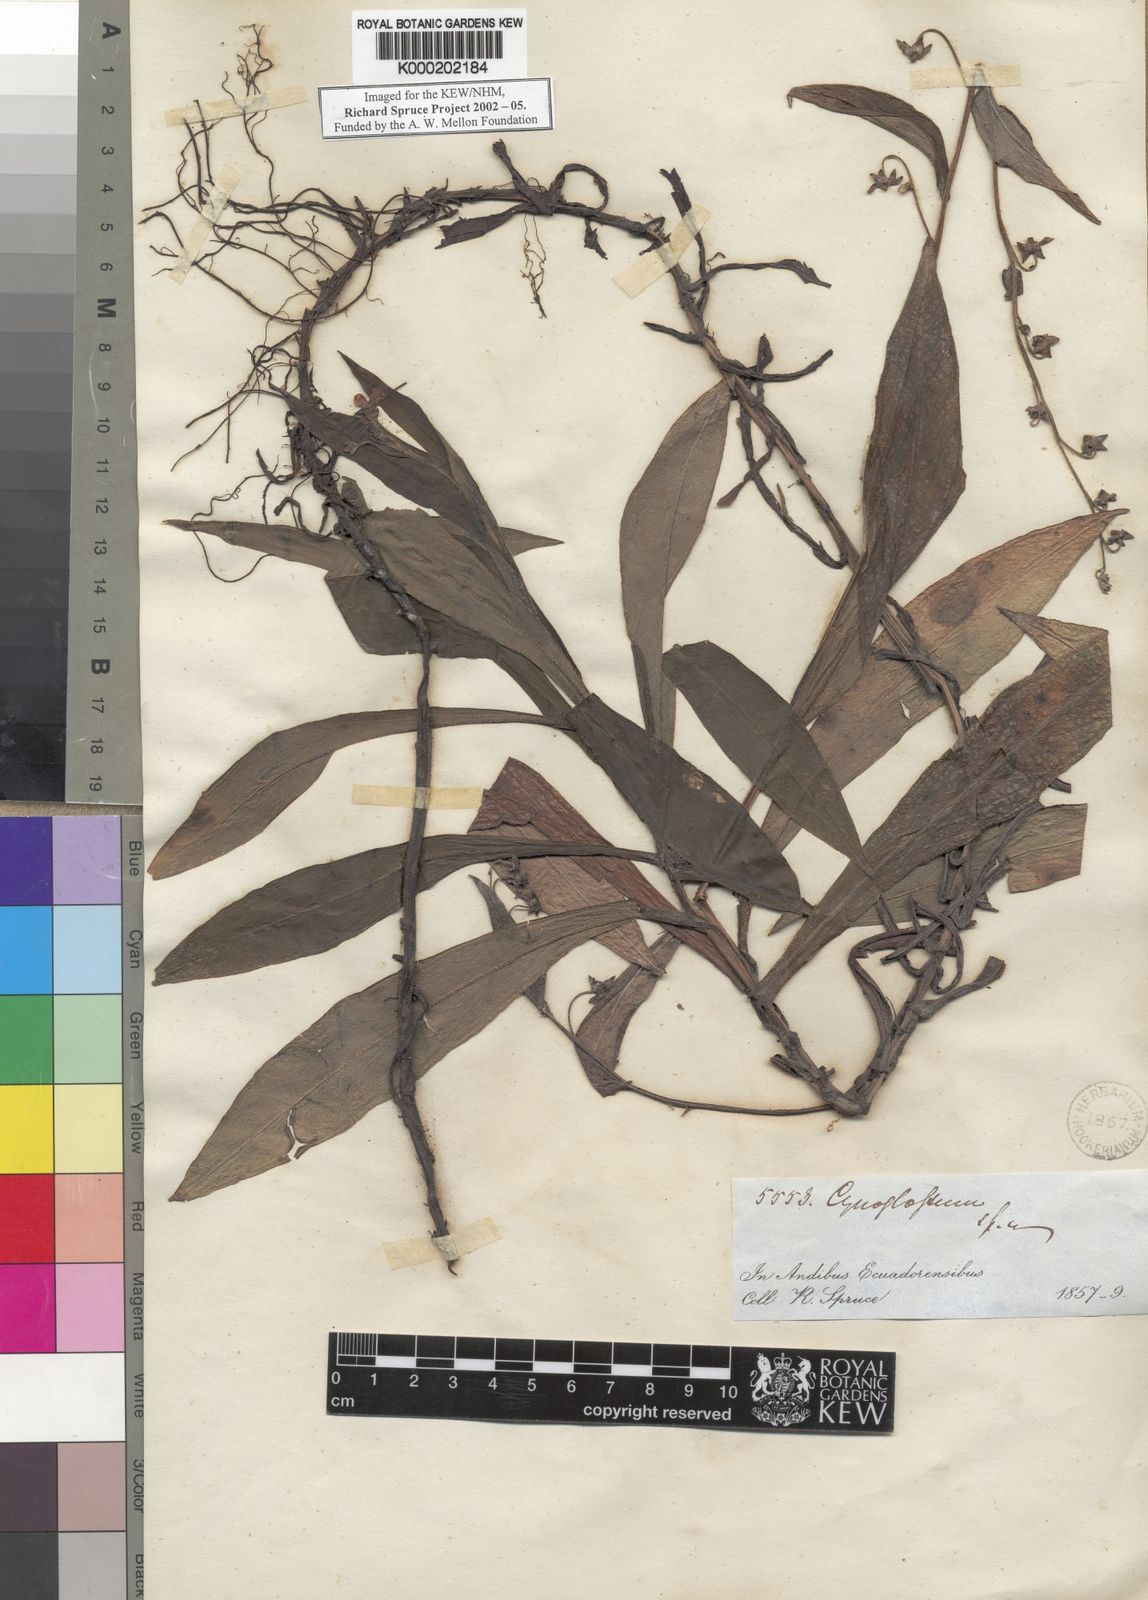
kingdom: Plantae
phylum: Tracheophyta
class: Magnoliopsida
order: Boraginales
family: Boraginaceae
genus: Cynoglossum
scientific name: Cynoglossum
